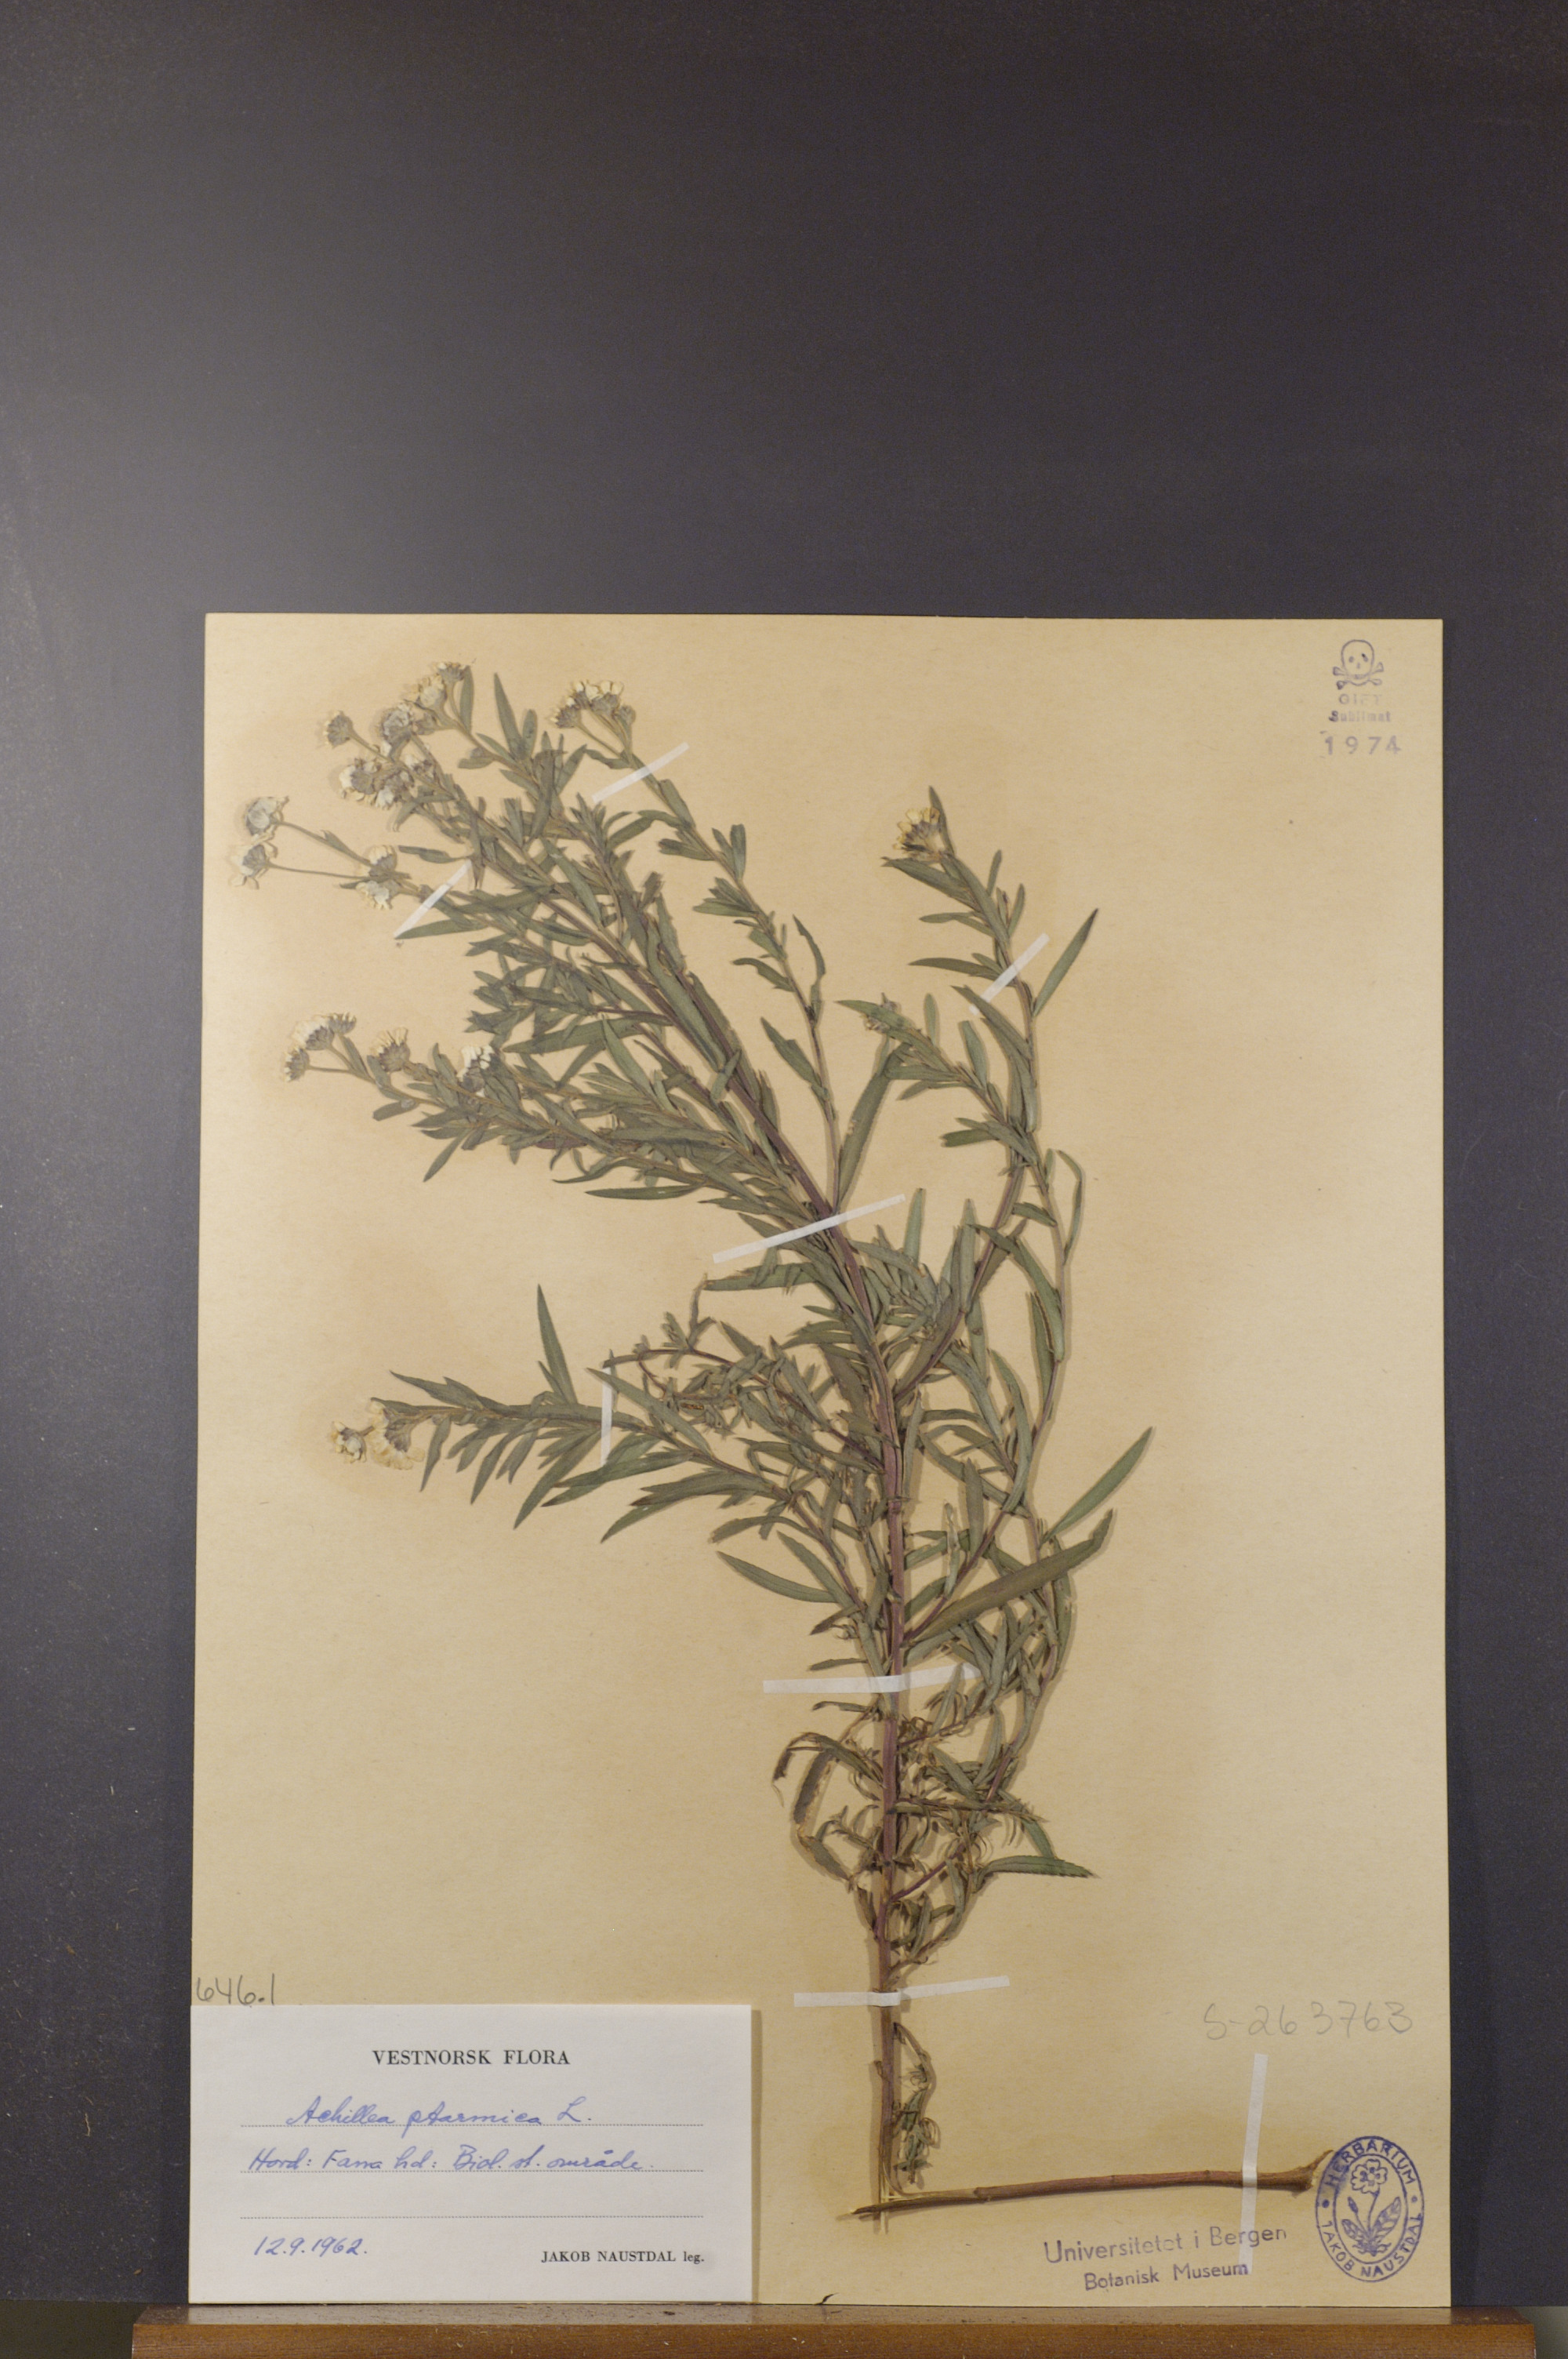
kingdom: Plantae
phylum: Tracheophyta
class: Magnoliopsida
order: Asterales
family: Asteraceae
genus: Achillea
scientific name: Achillea ptarmica
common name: Sneezeweed
